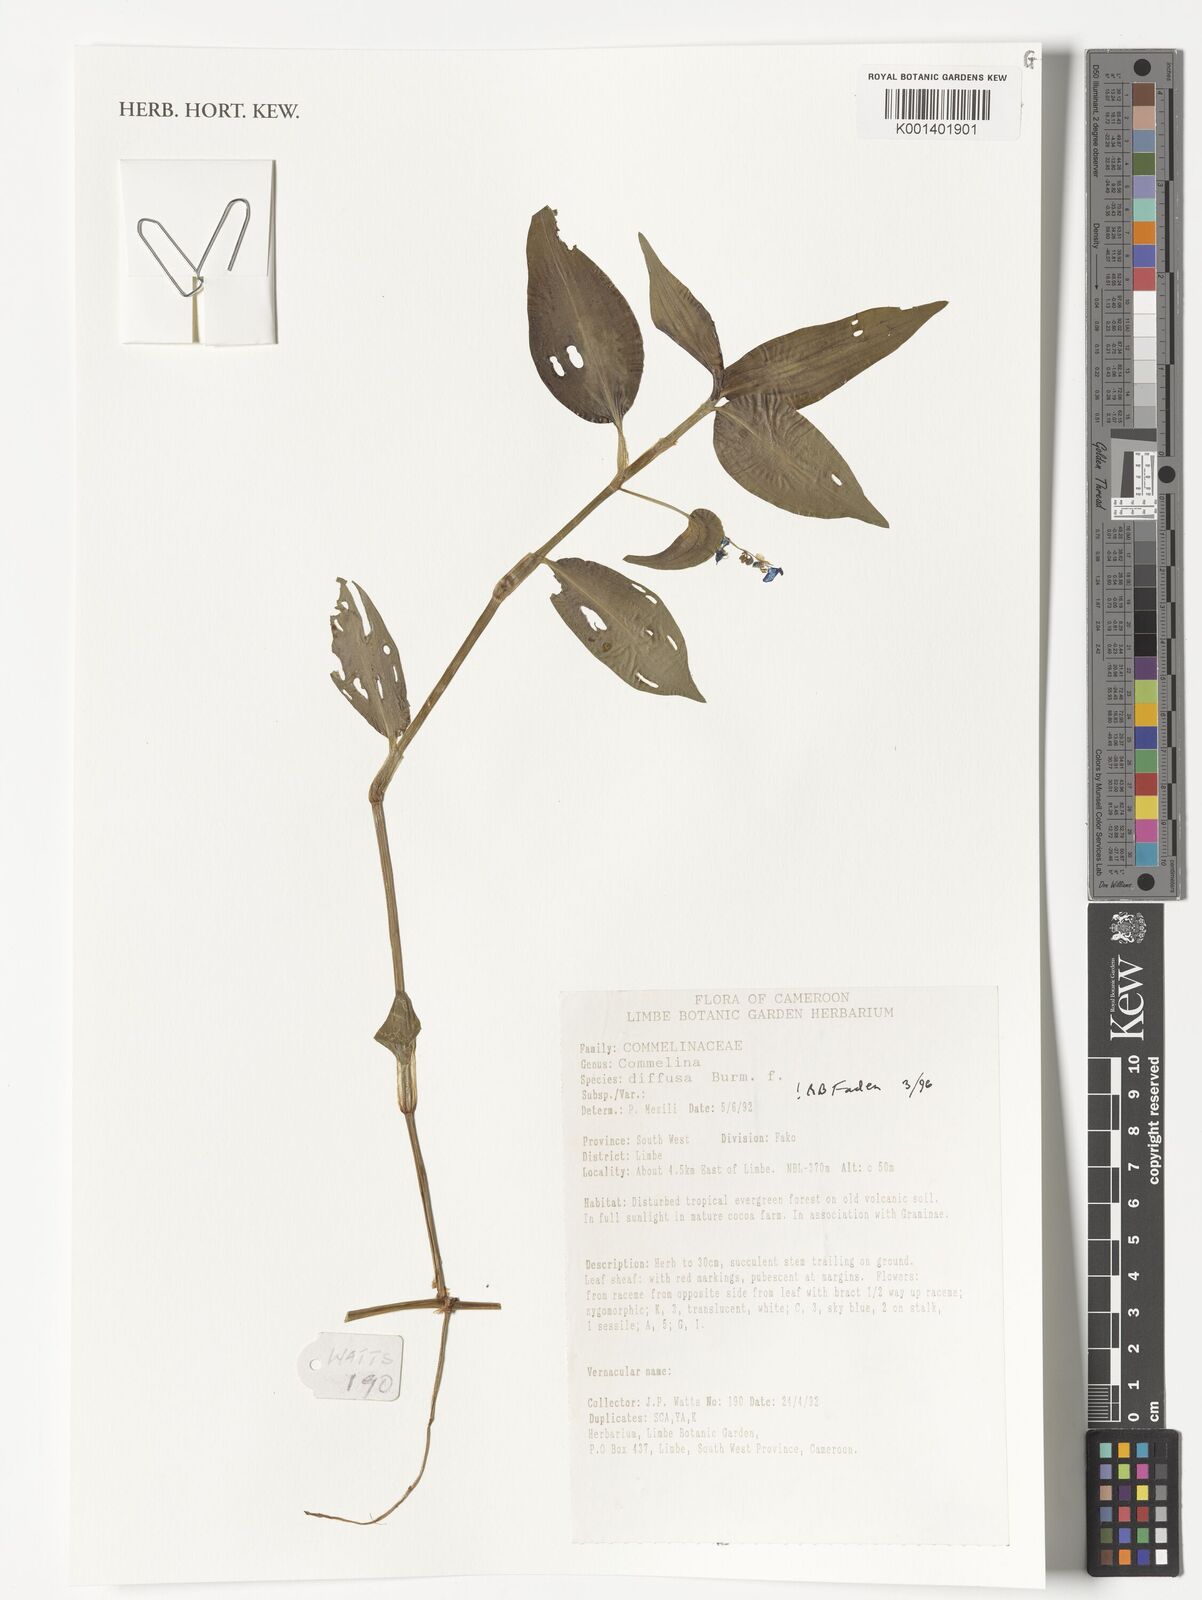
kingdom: Plantae
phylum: Tracheophyta
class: Liliopsida
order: Commelinales
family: Commelinaceae
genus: Commelina
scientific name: Commelina diffusa
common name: Climbing dayflower
